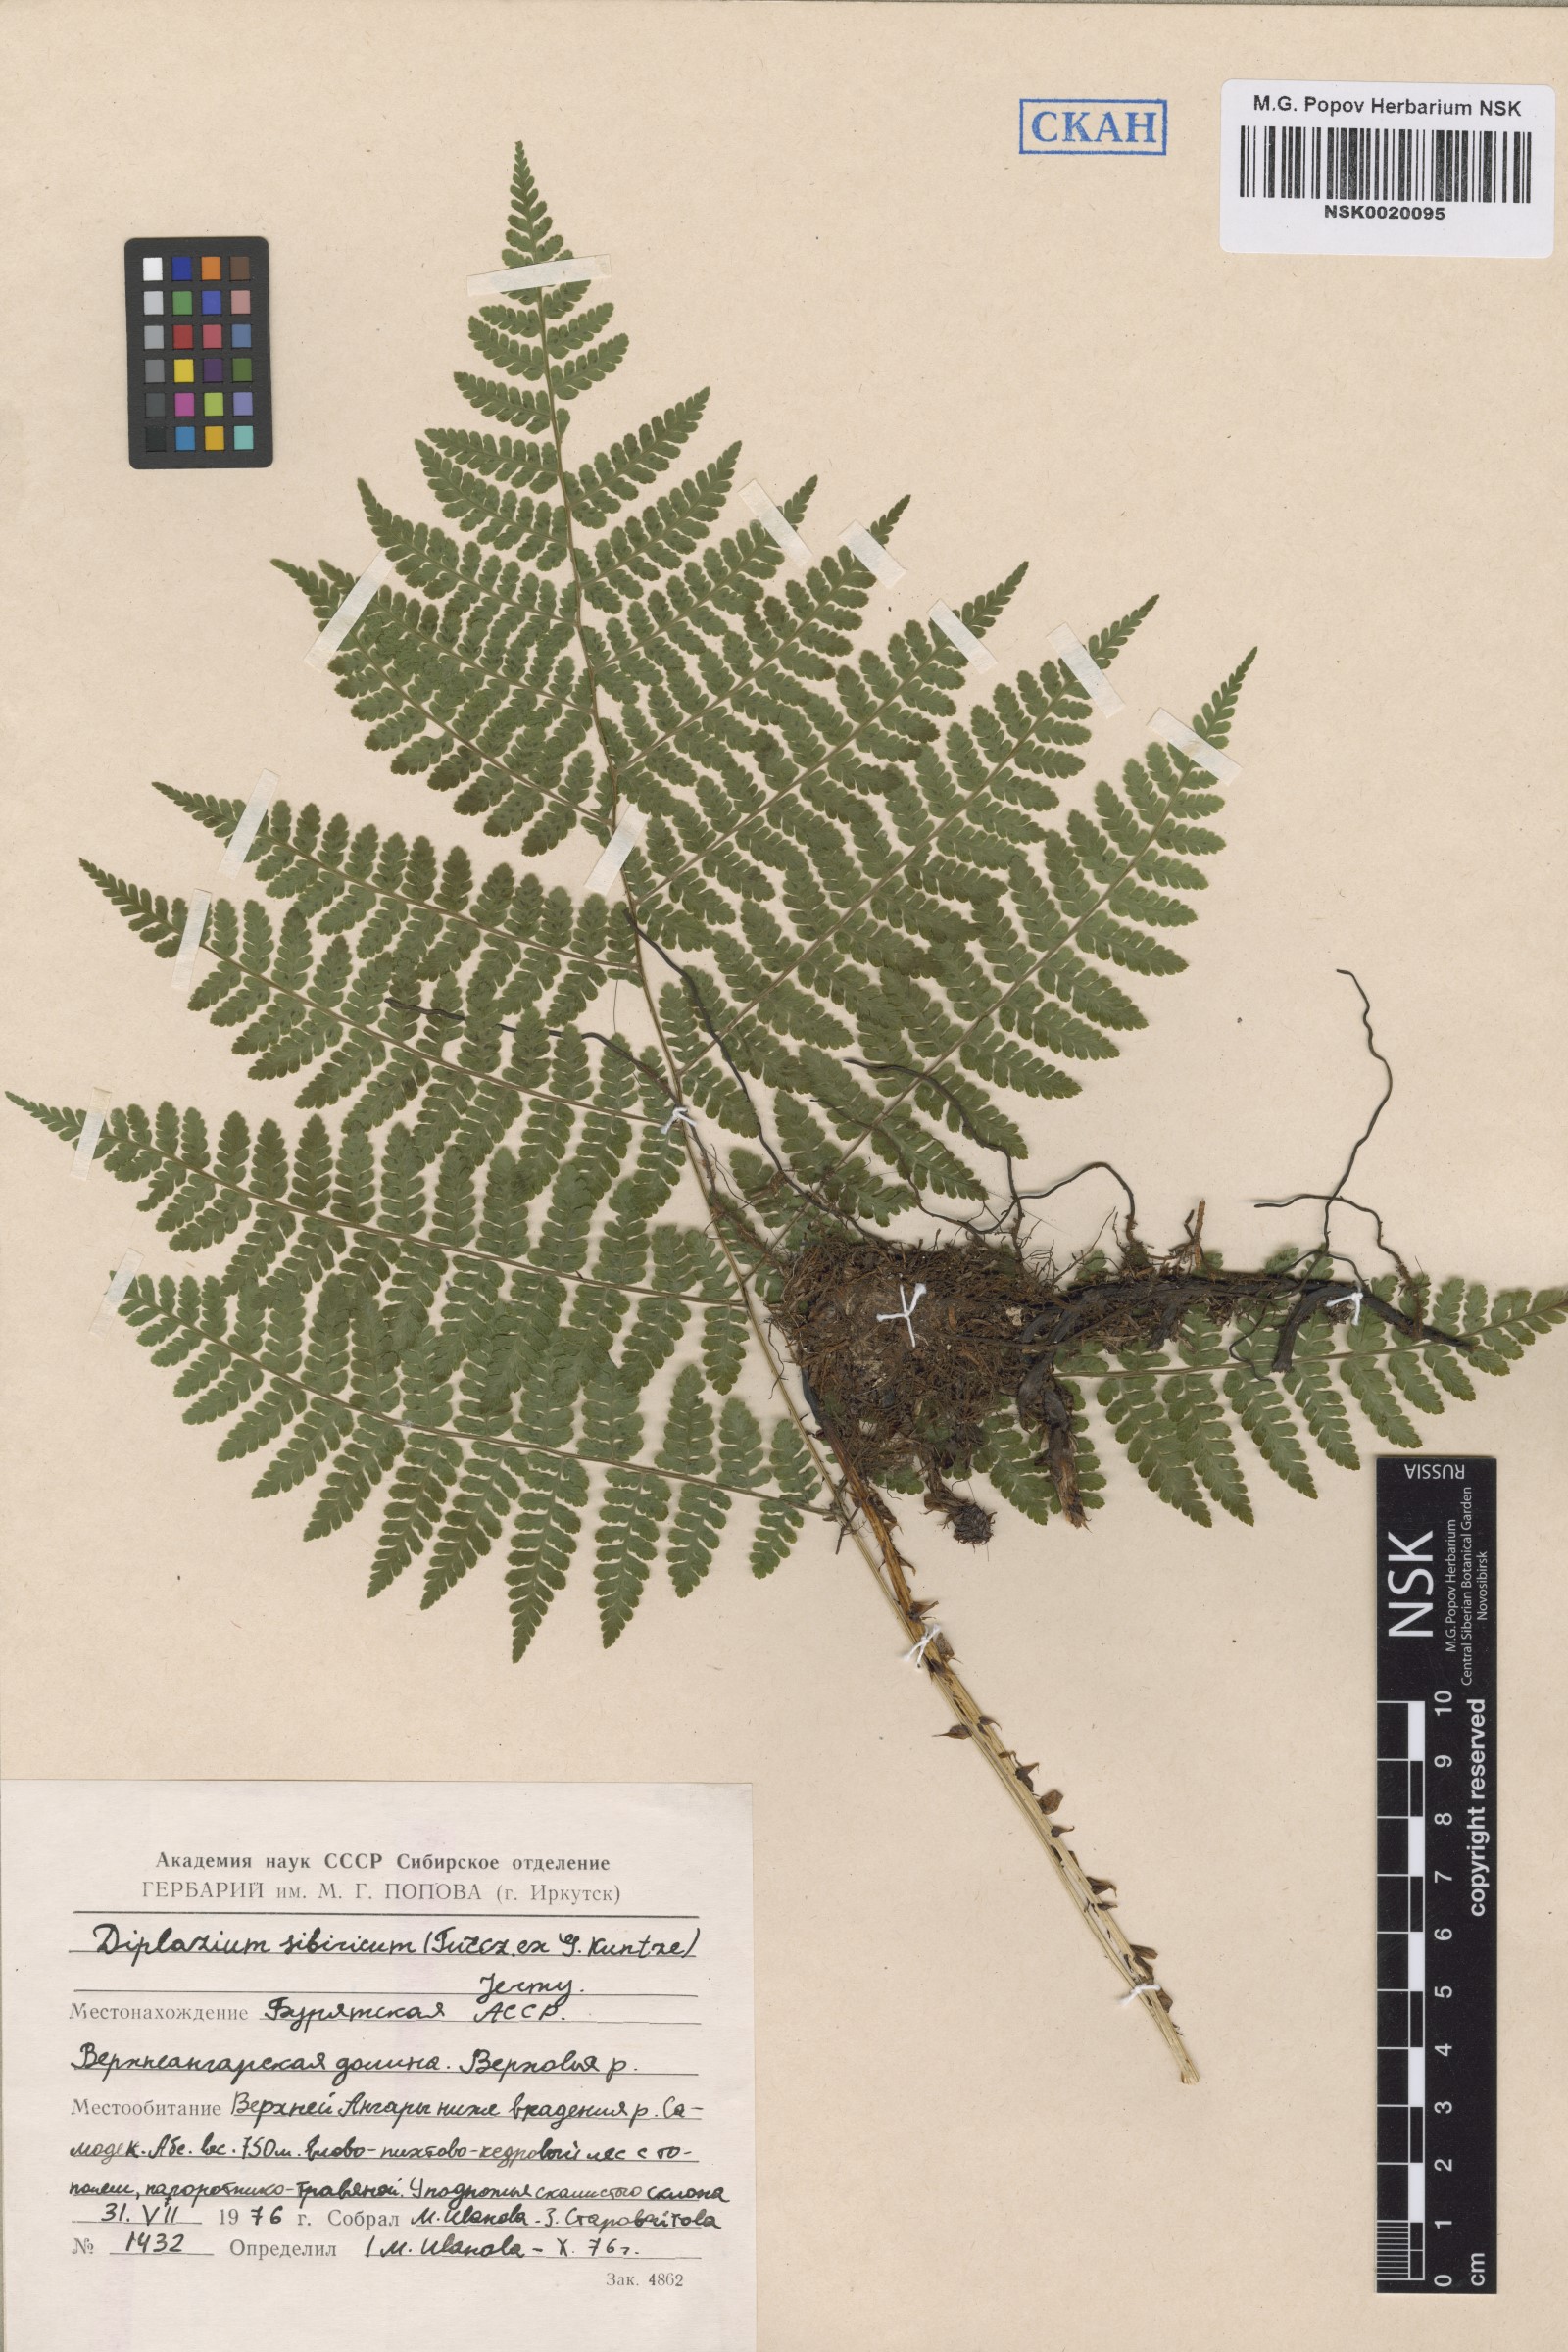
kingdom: Plantae
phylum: Tracheophyta
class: Polypodiopsida
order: Polypodiales
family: Athyriaceae
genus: Diplazium
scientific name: Diplazium sibiricum
